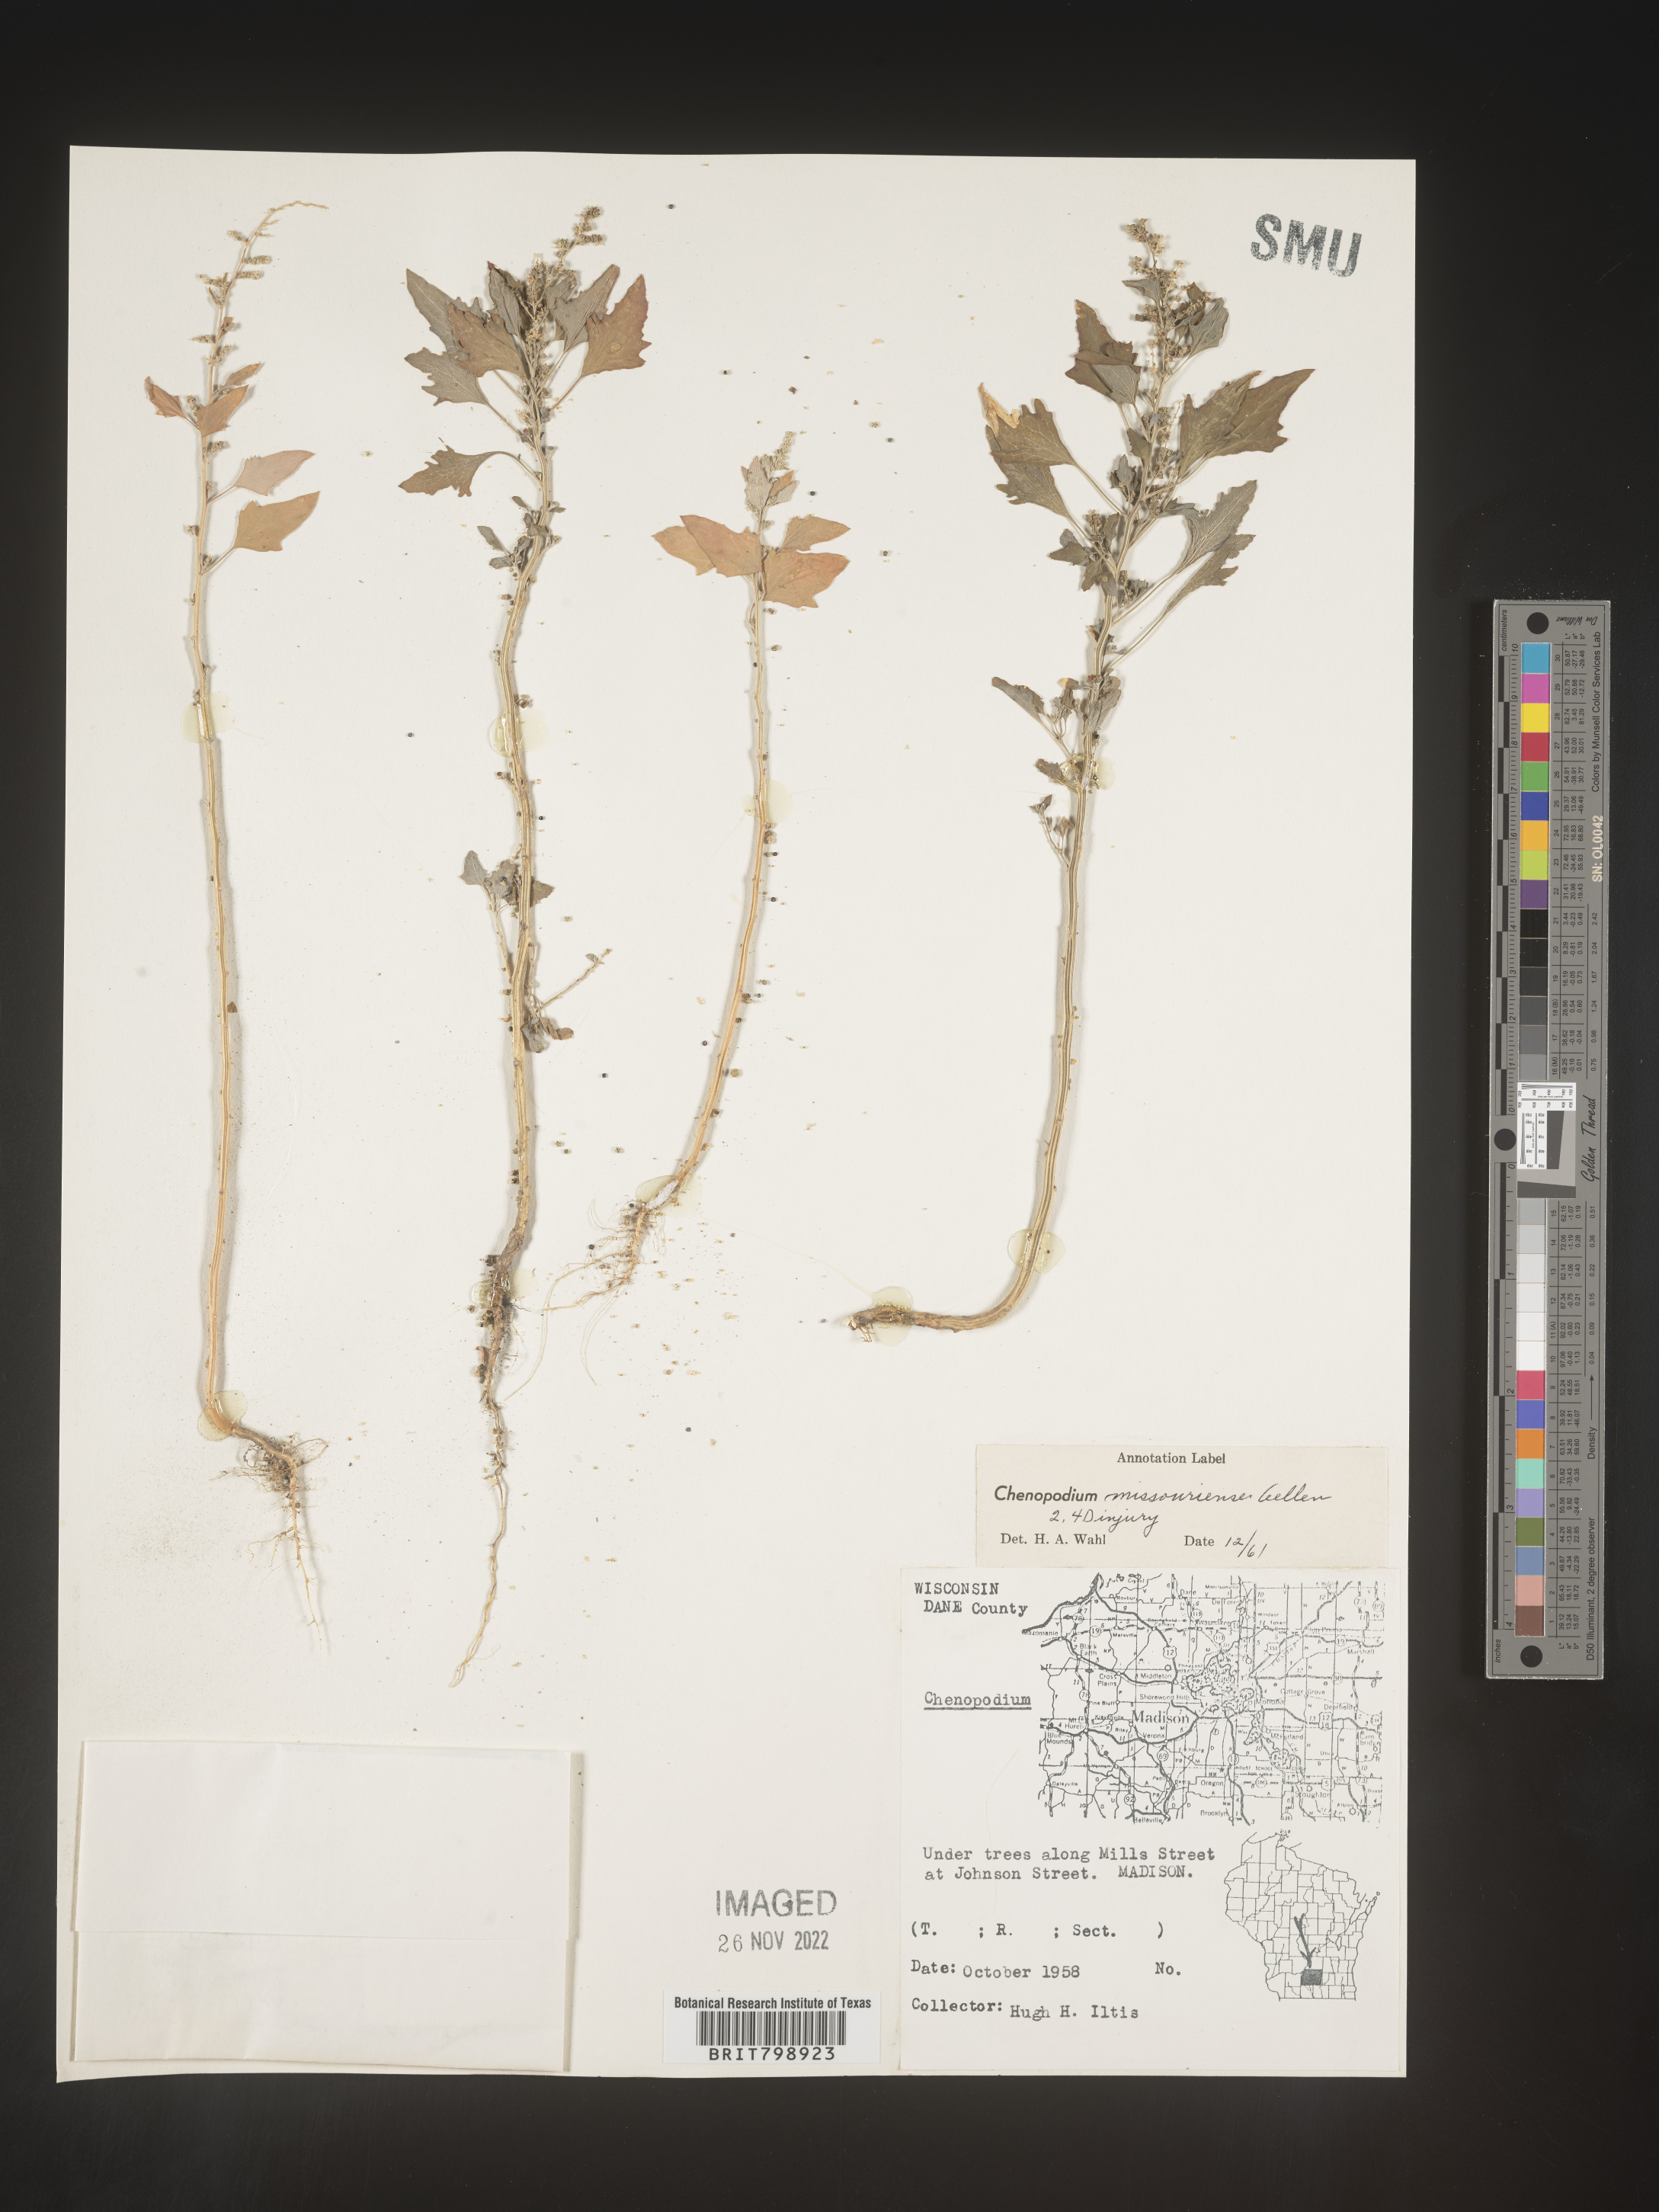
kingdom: Plantae
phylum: Tracheophyta
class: Magnoliopsida
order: Caryophyllales
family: Amaranthaceae
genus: Chenopodium
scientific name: Chenopodium album
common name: Fat-hen
